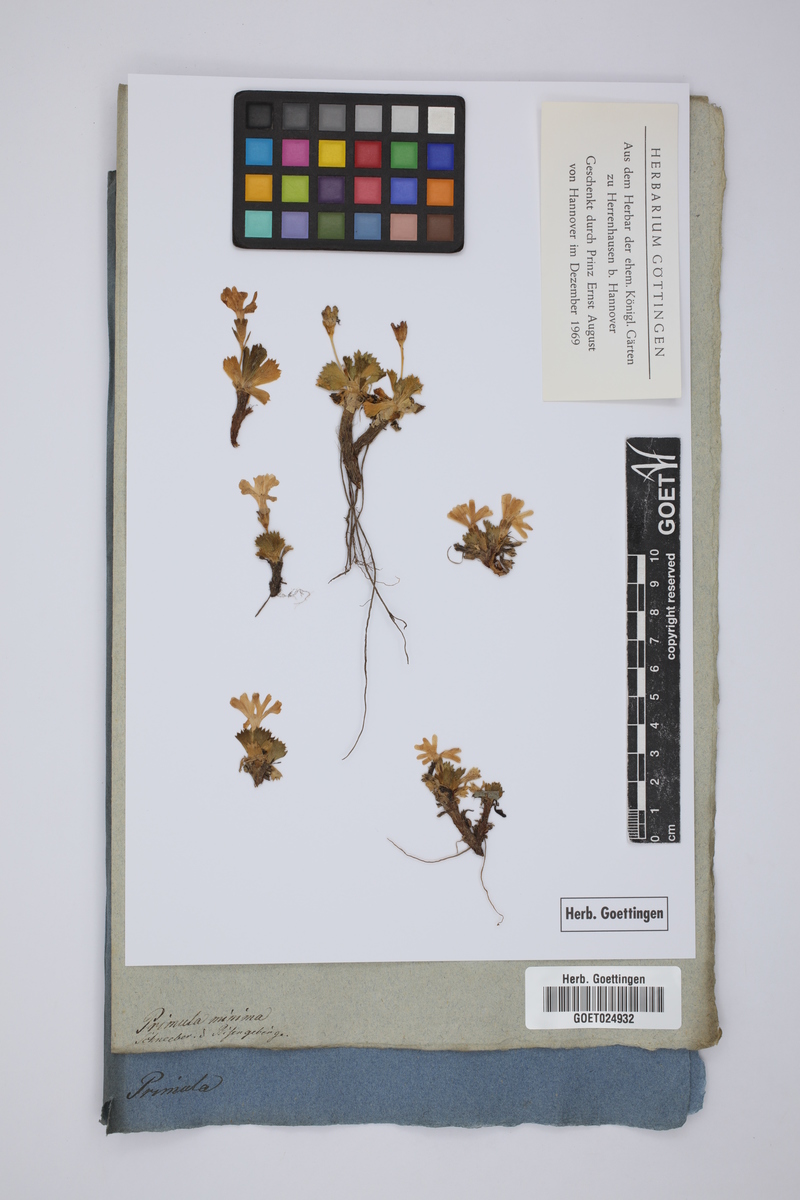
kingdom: Plantae
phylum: Tracheophyta
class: Magnoliopsida
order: Ericales
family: Primulaceae
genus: Primula
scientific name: Primula minima
